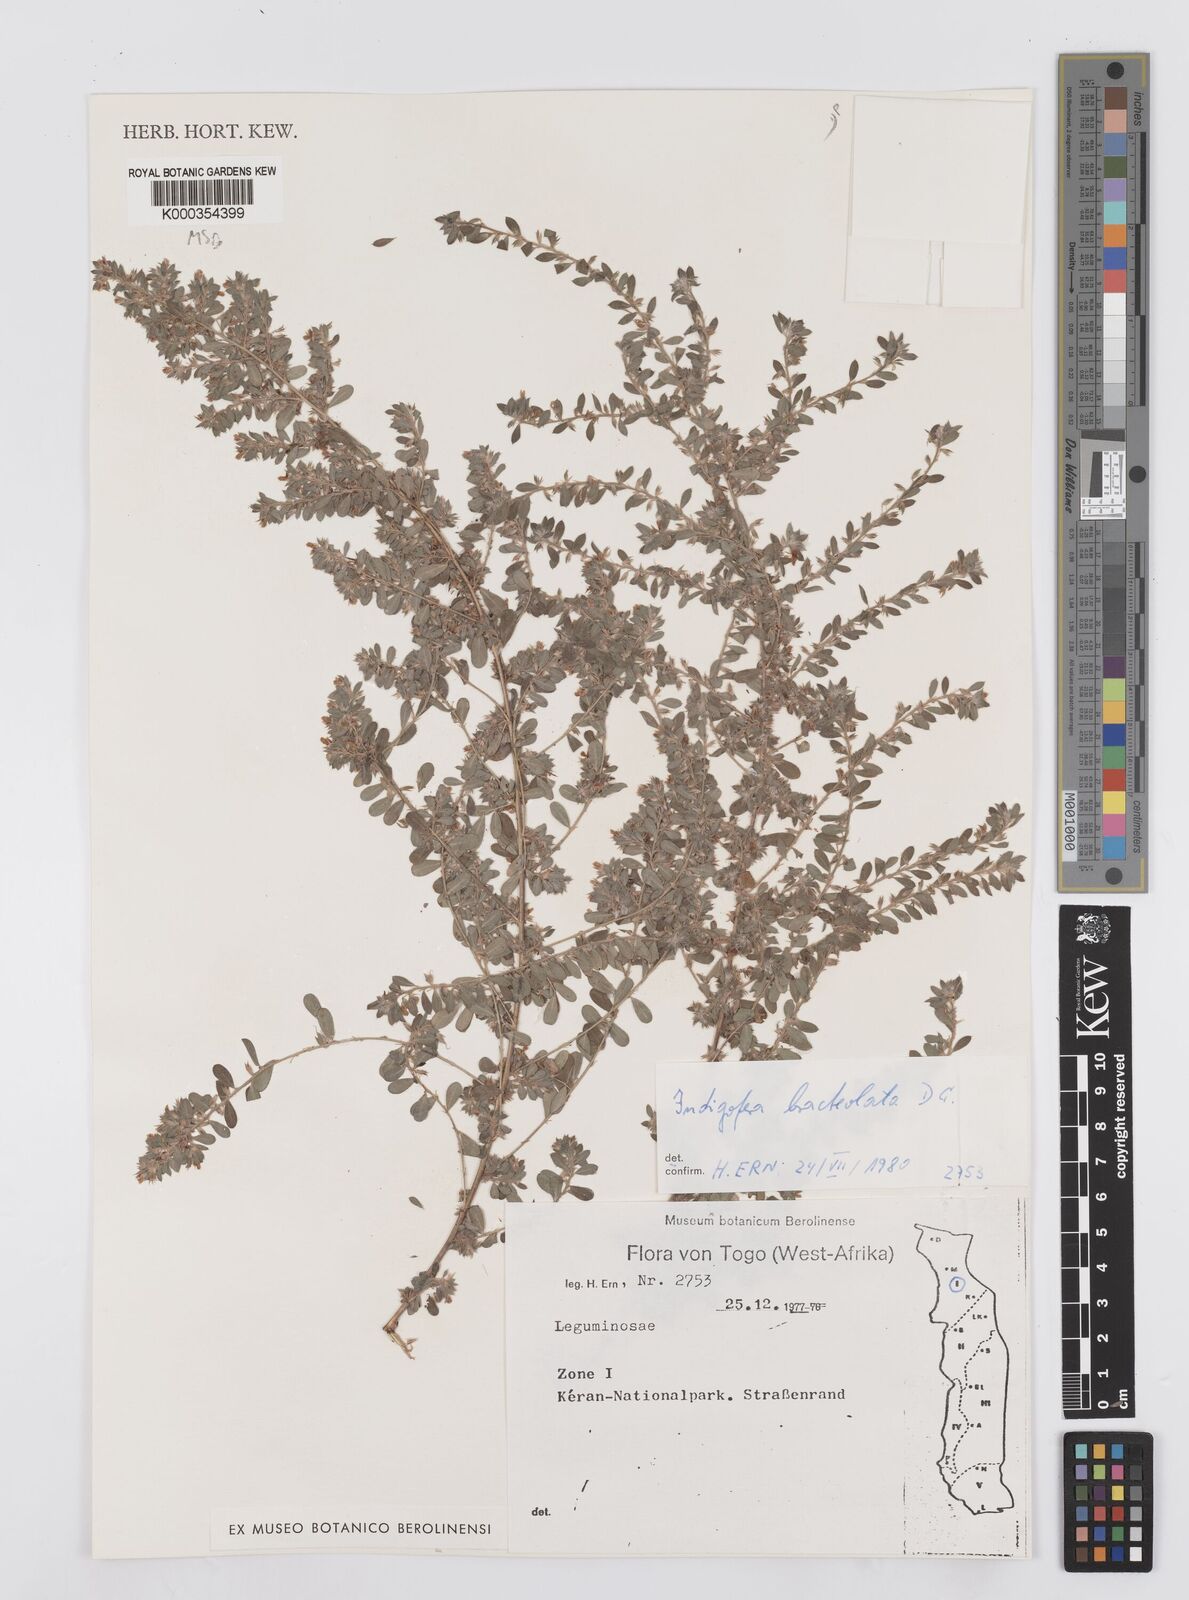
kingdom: Plantae
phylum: Tracheophyta
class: Magnoliopsida
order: Fabales
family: Fabaceae
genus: Indigofera
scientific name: Indigofera bracteolata
